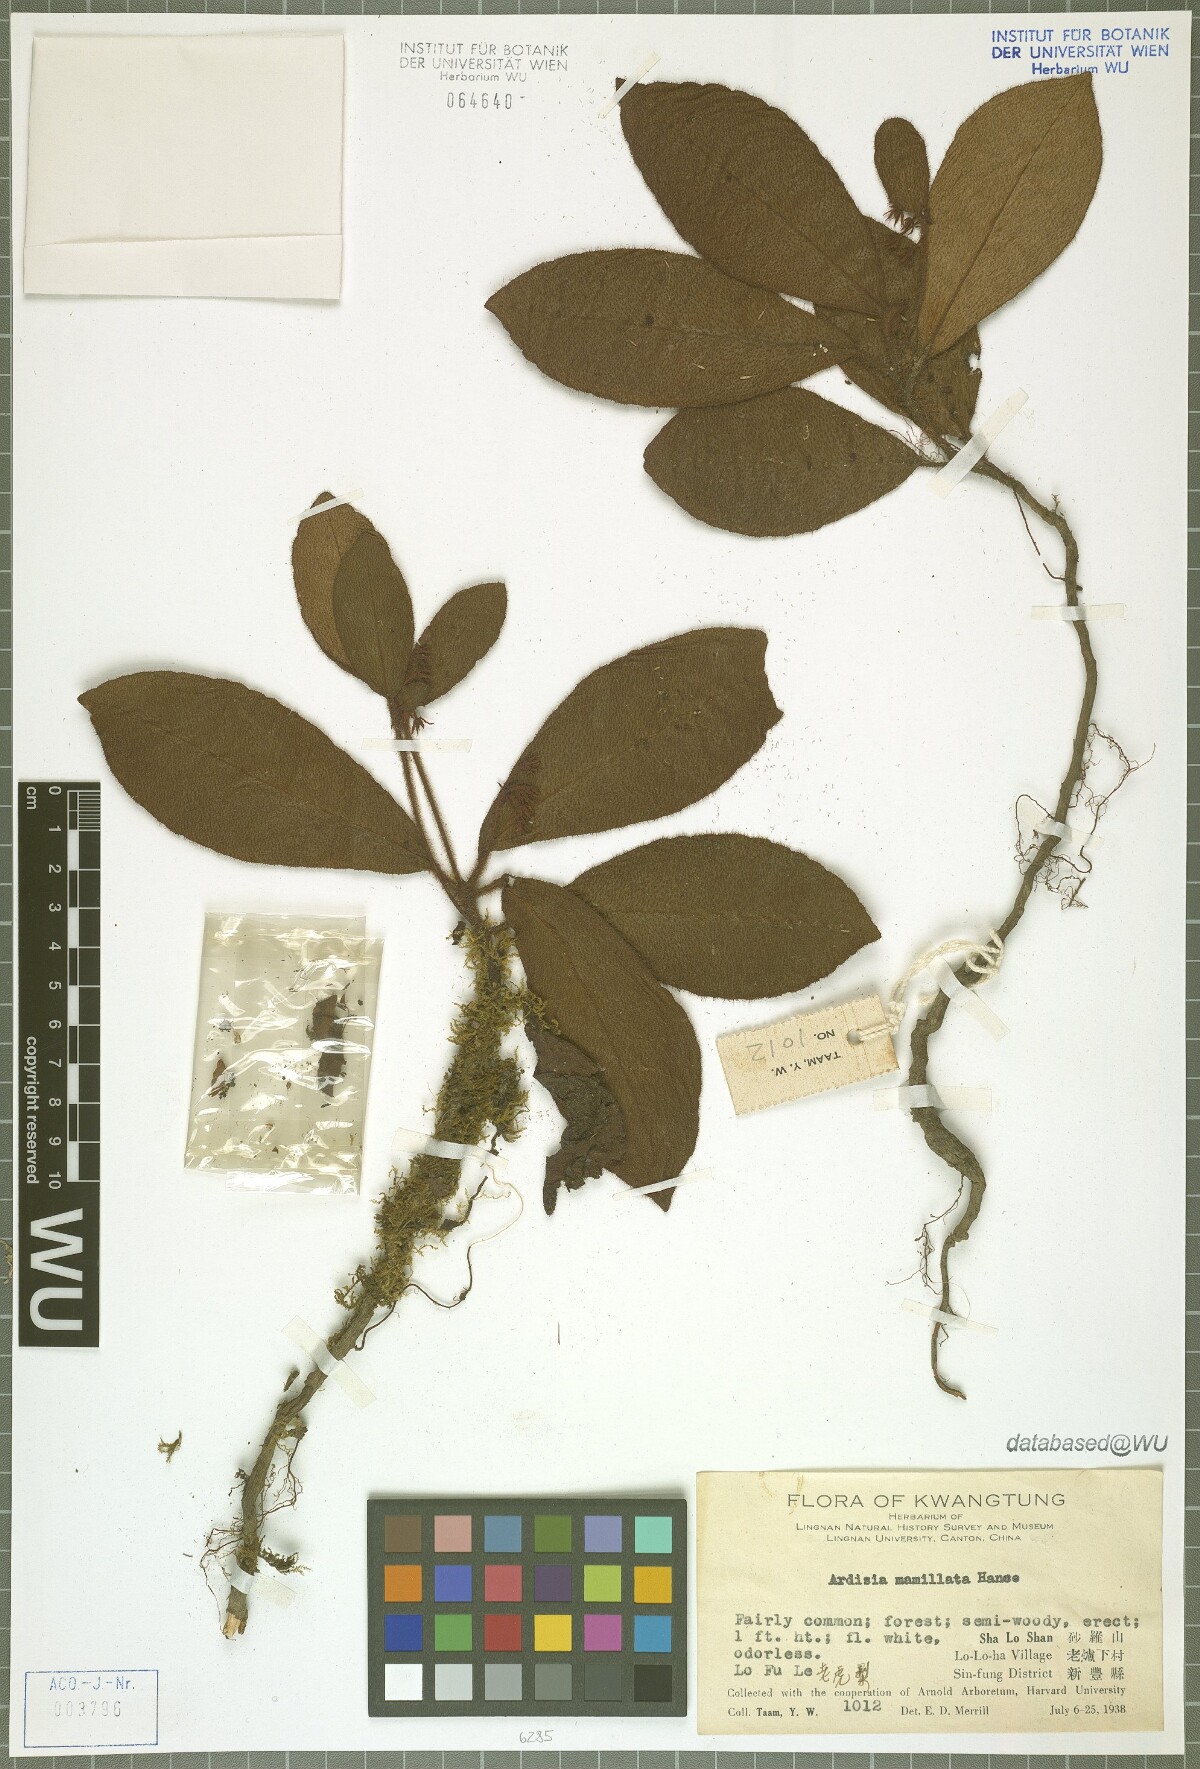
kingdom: Plantae
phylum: Tracheophyta
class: Magnoliopsida
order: Ericales
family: Primulaceae
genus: Ardisia
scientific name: Ardisia mamillata
